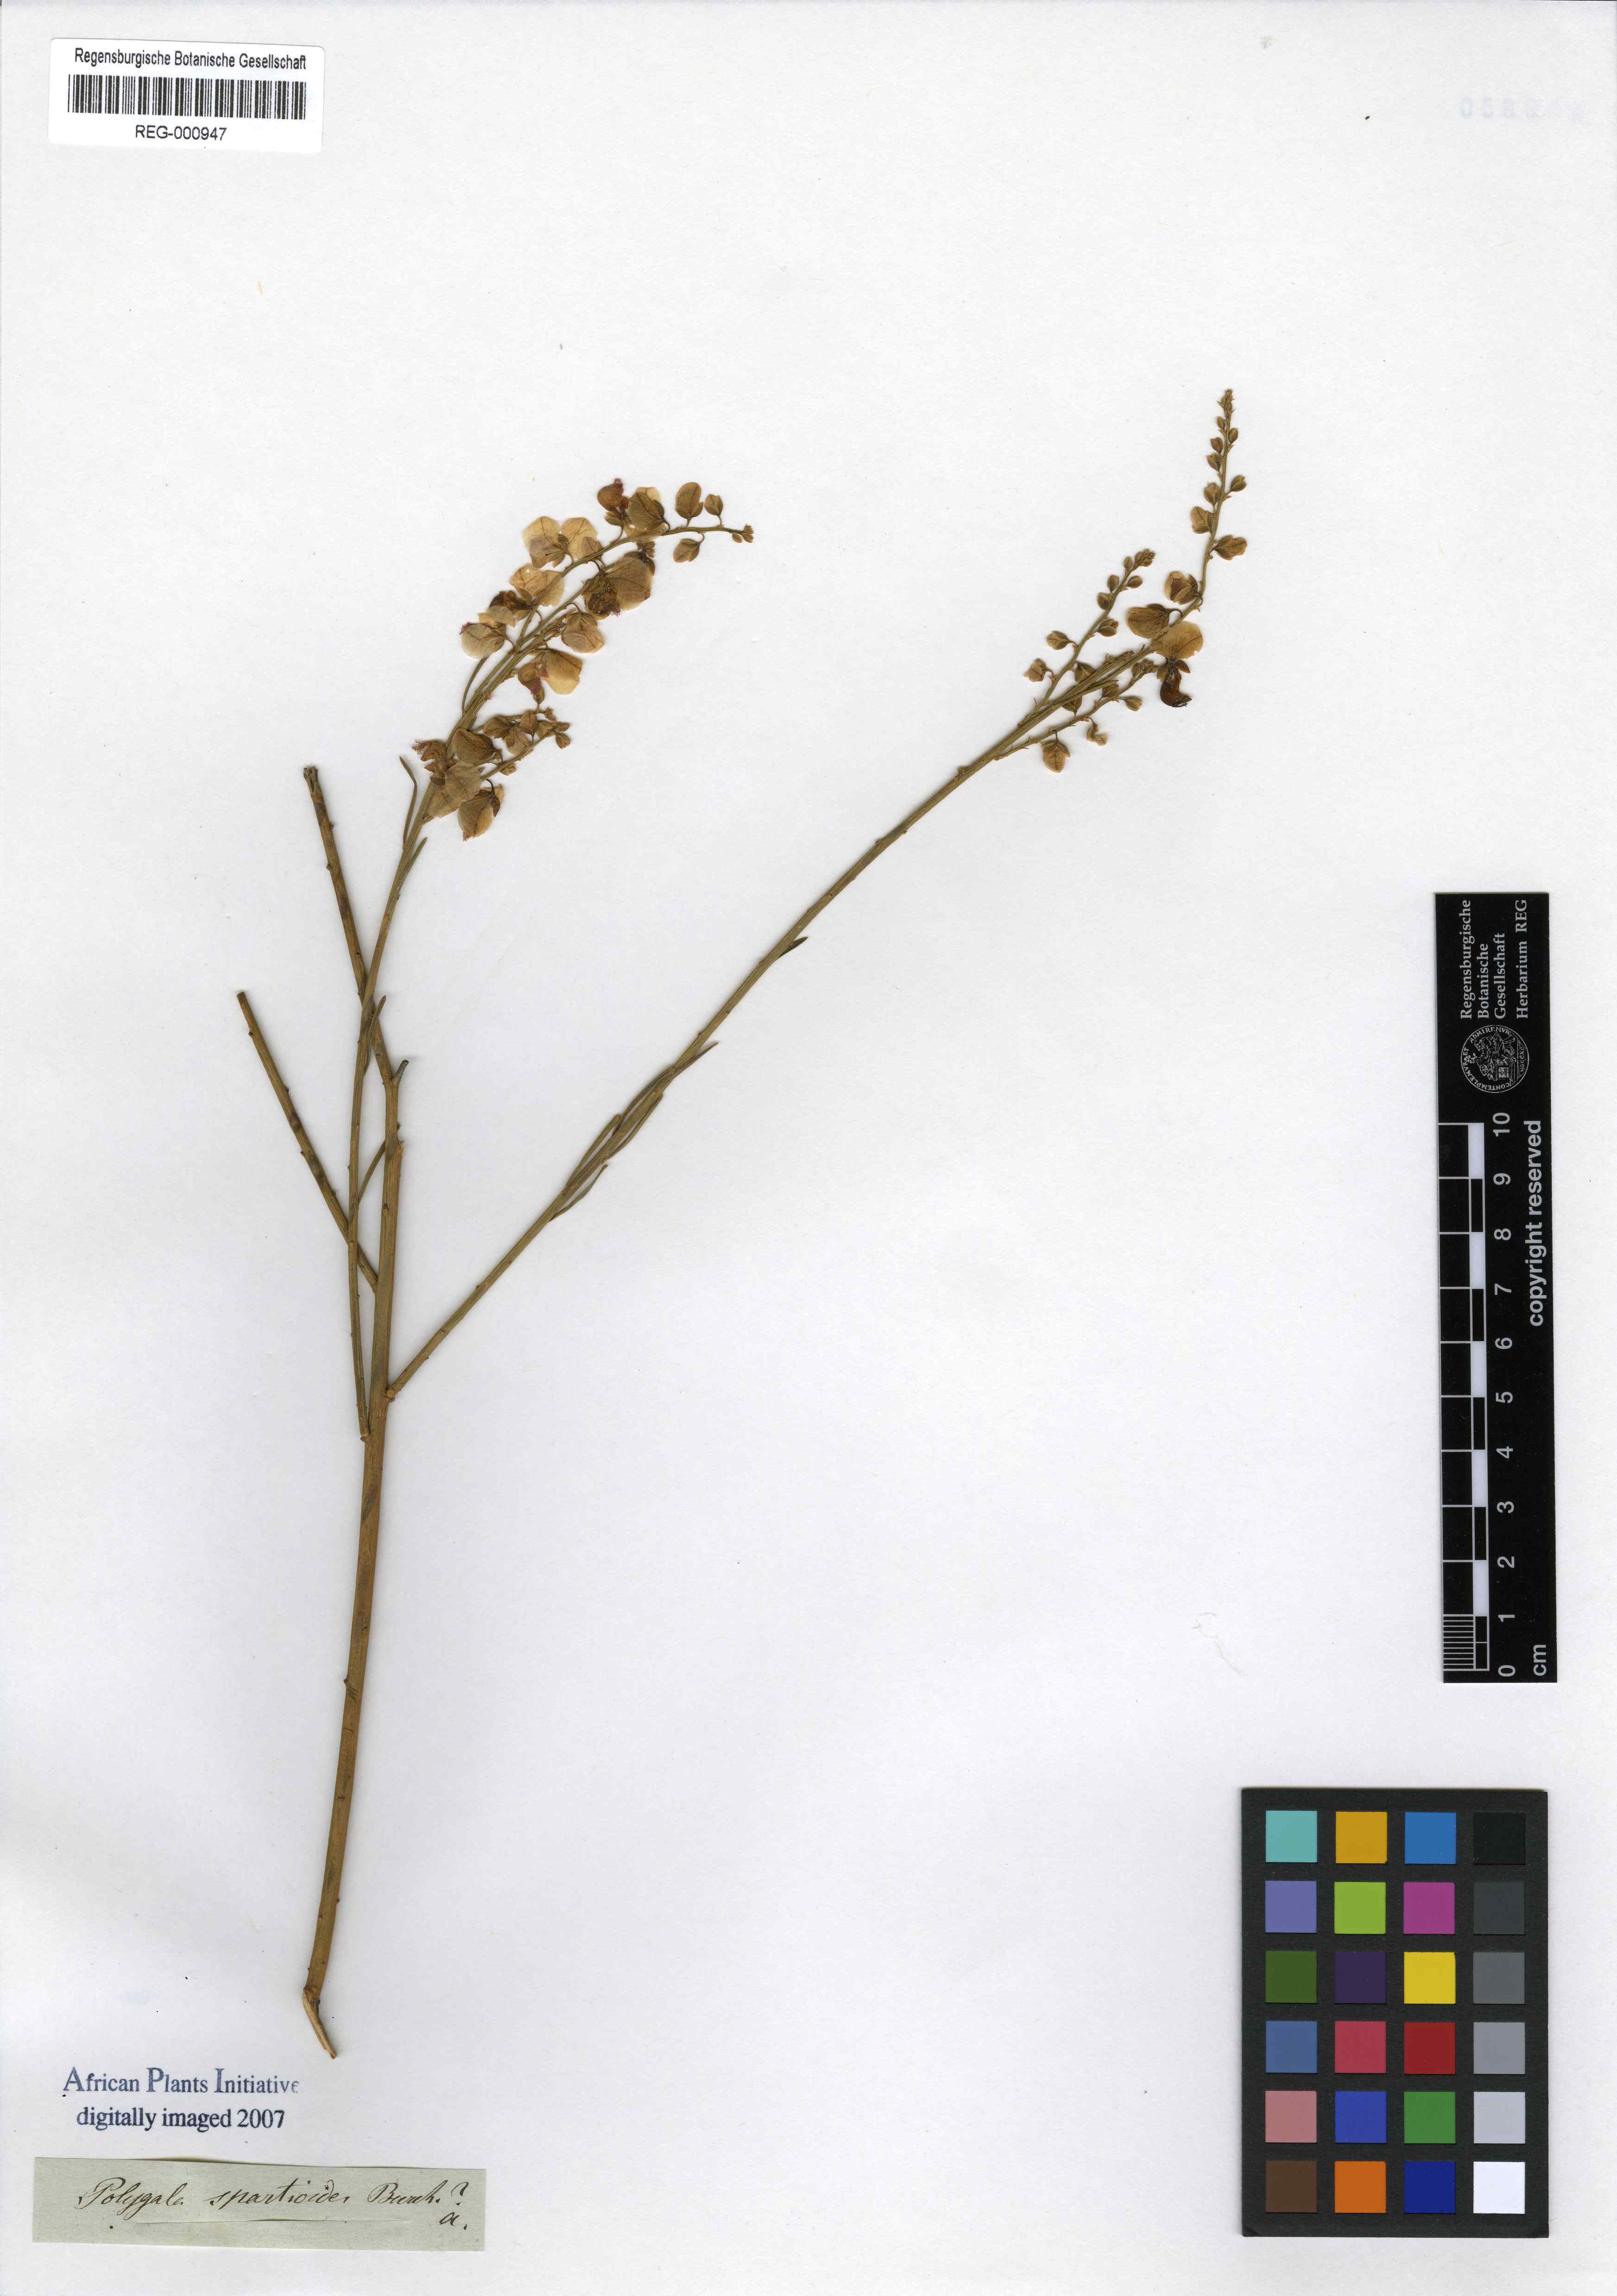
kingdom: Plantae
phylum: Tracheophyta
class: Magnoliopsida
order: Fabales
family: Polygalaceae
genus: Polygala
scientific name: Polygala virgata
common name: Milkwort
